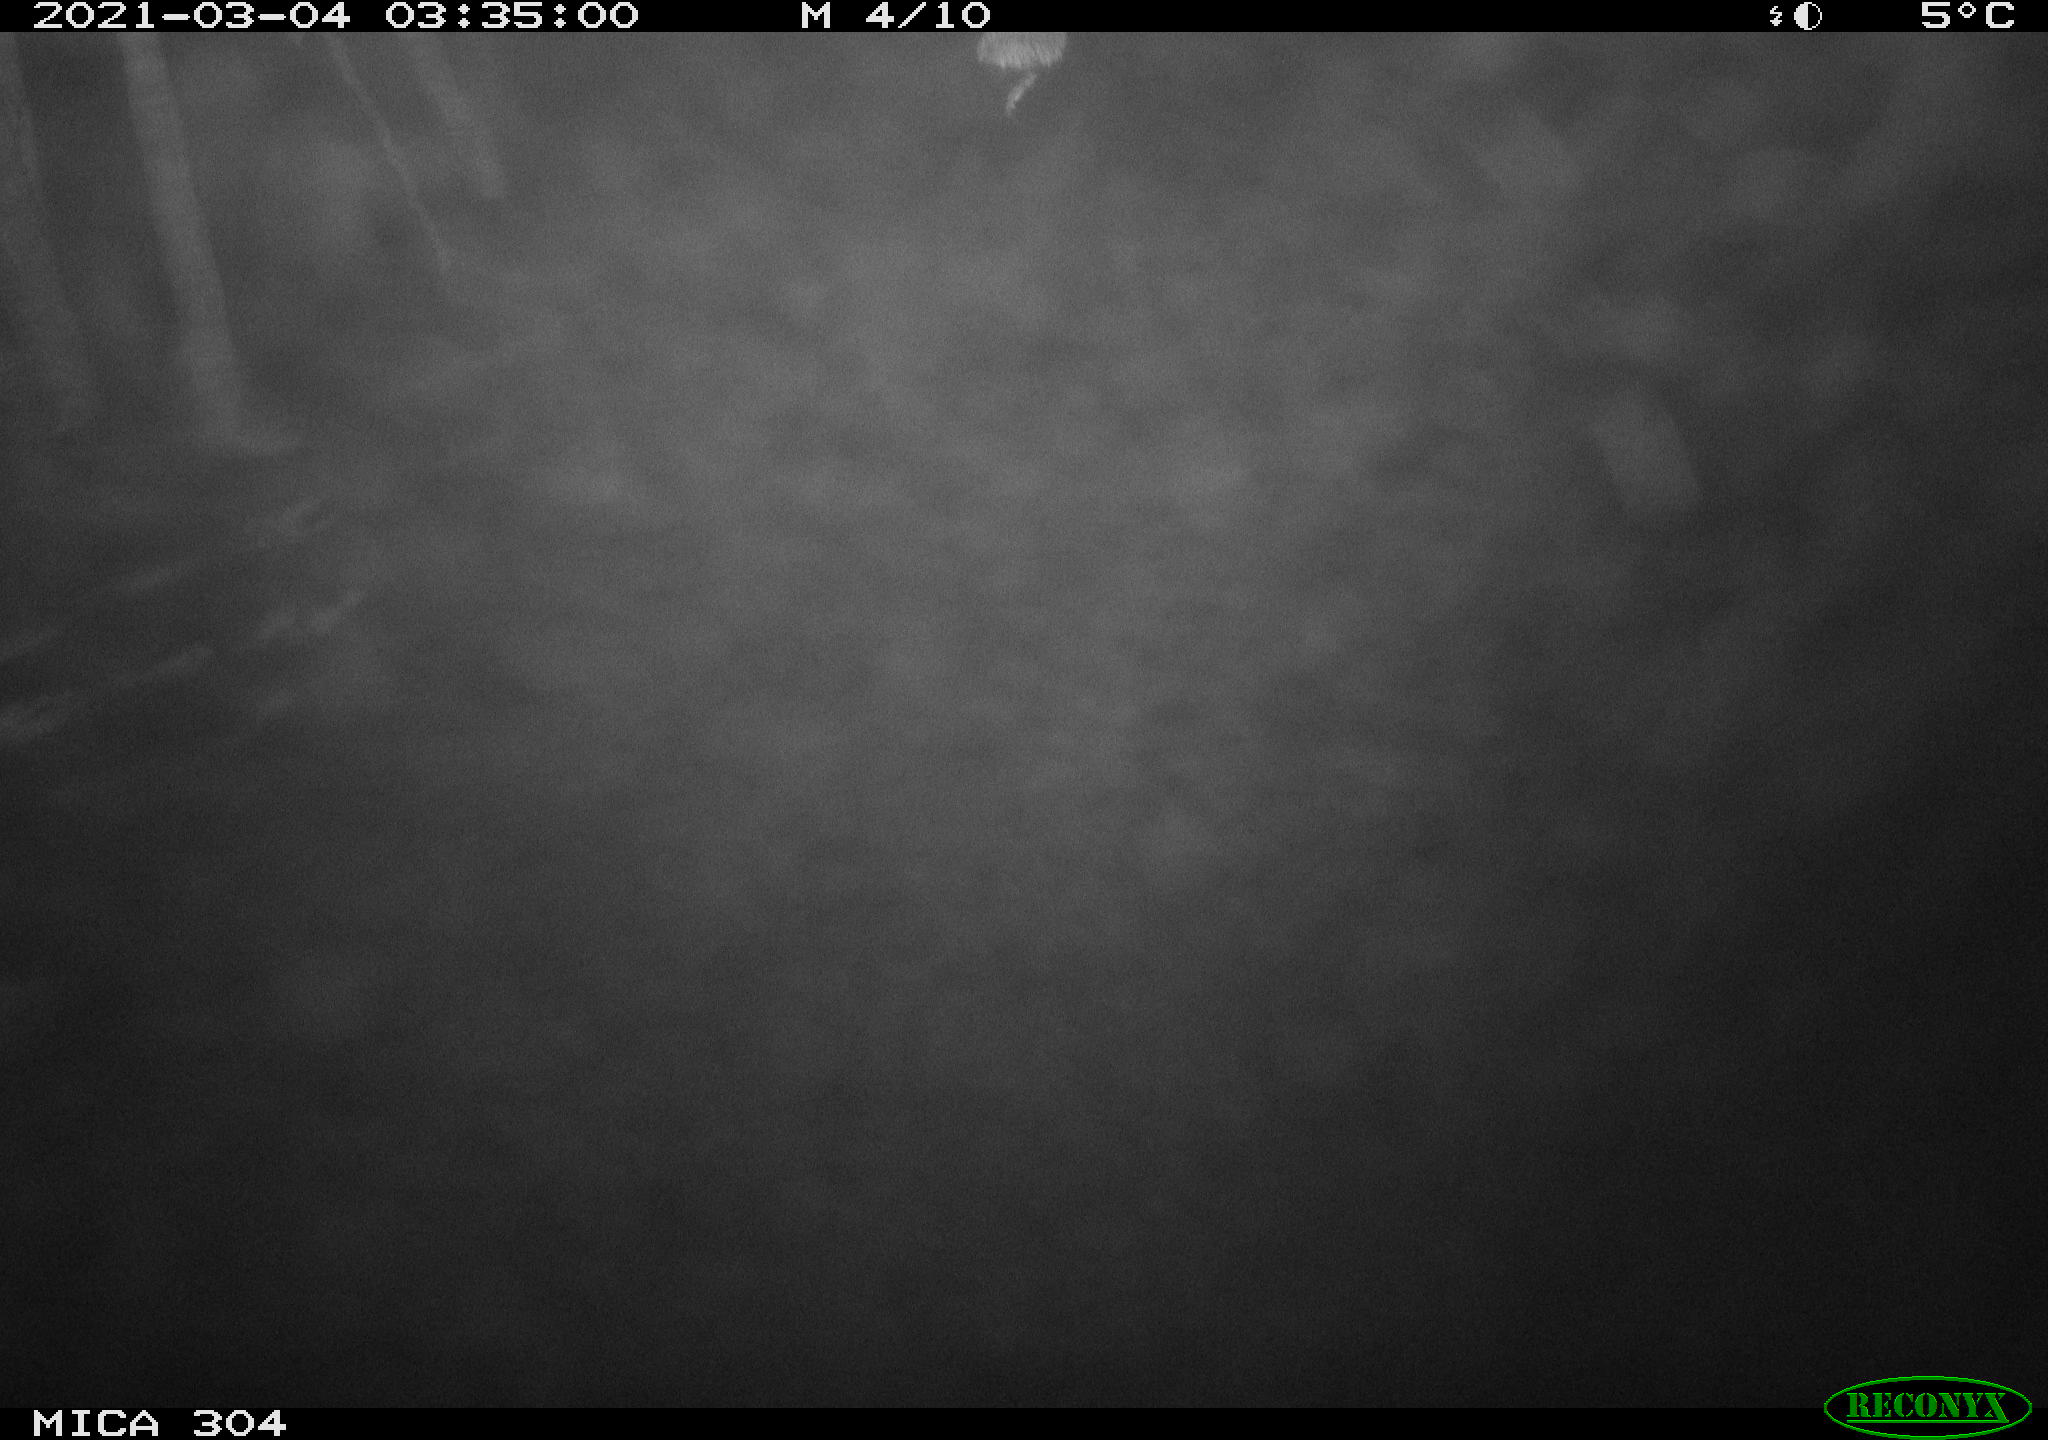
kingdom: Animalia
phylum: Chordata
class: Mammalia
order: Rodentia
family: Cricetidae
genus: Ondatra
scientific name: Ondatra zibethicus
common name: Muskrat
